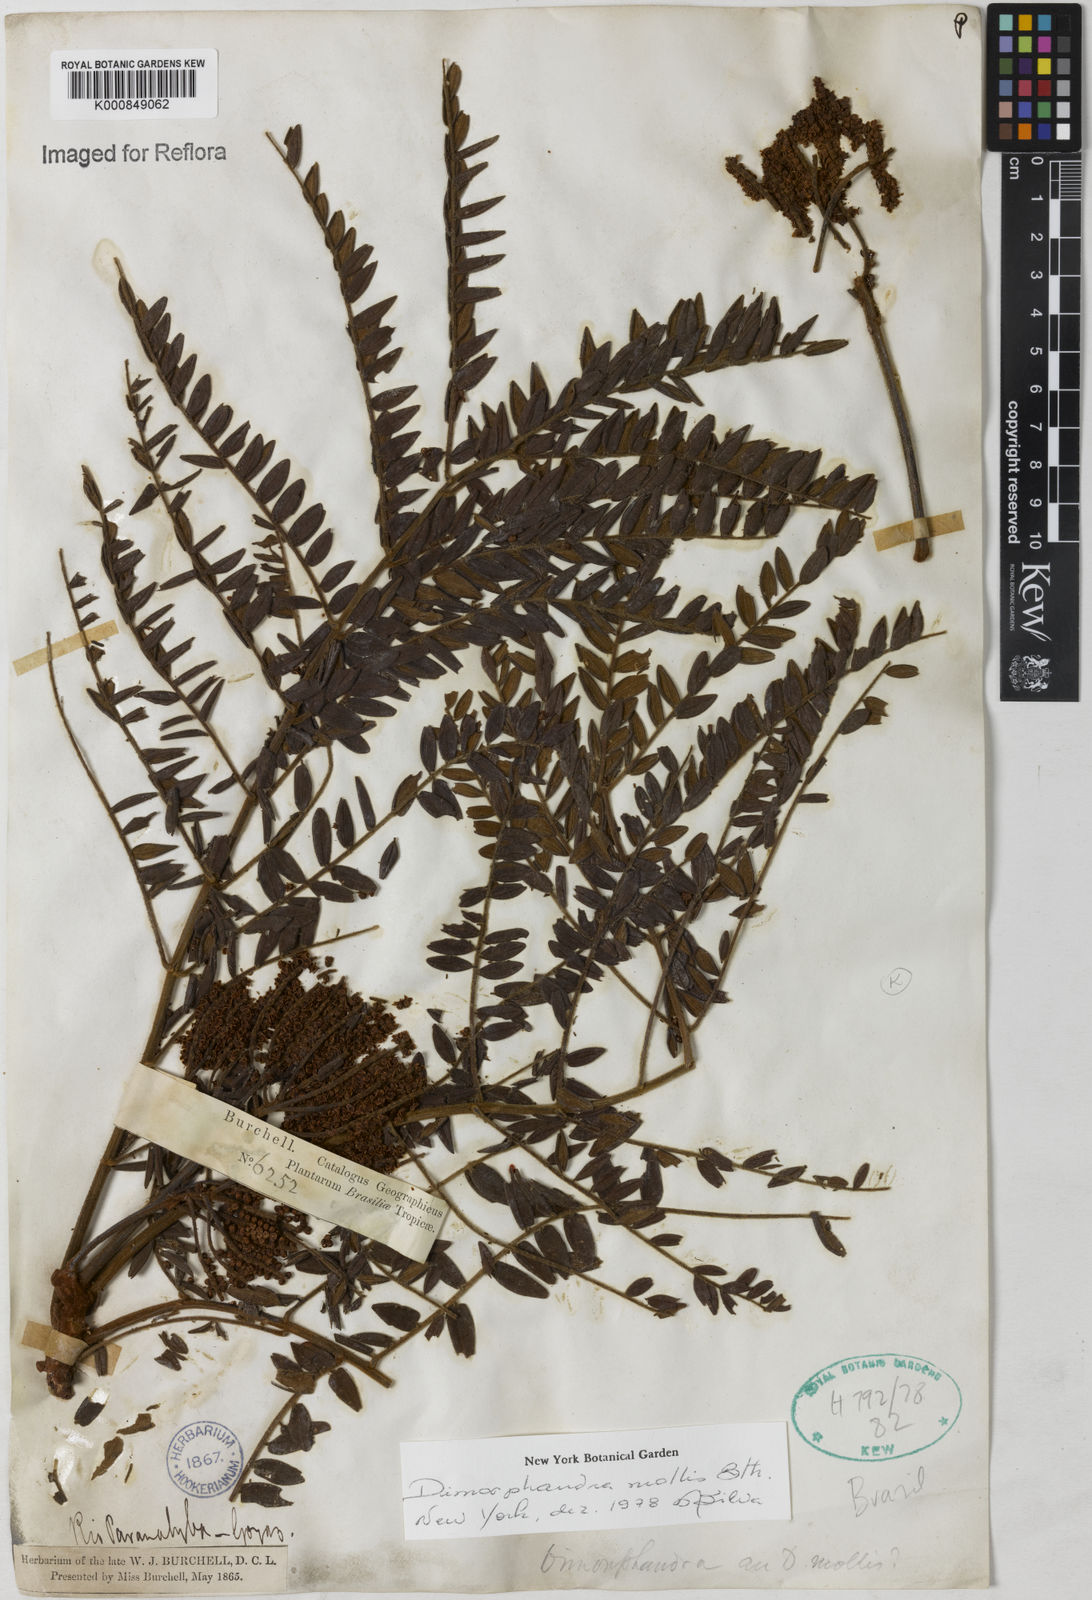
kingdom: Plantae
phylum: Tracheophyta
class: Magnoliopsida
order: Fabales
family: Fabaceae
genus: Dimorphandra
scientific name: Dimorphandra mollis
